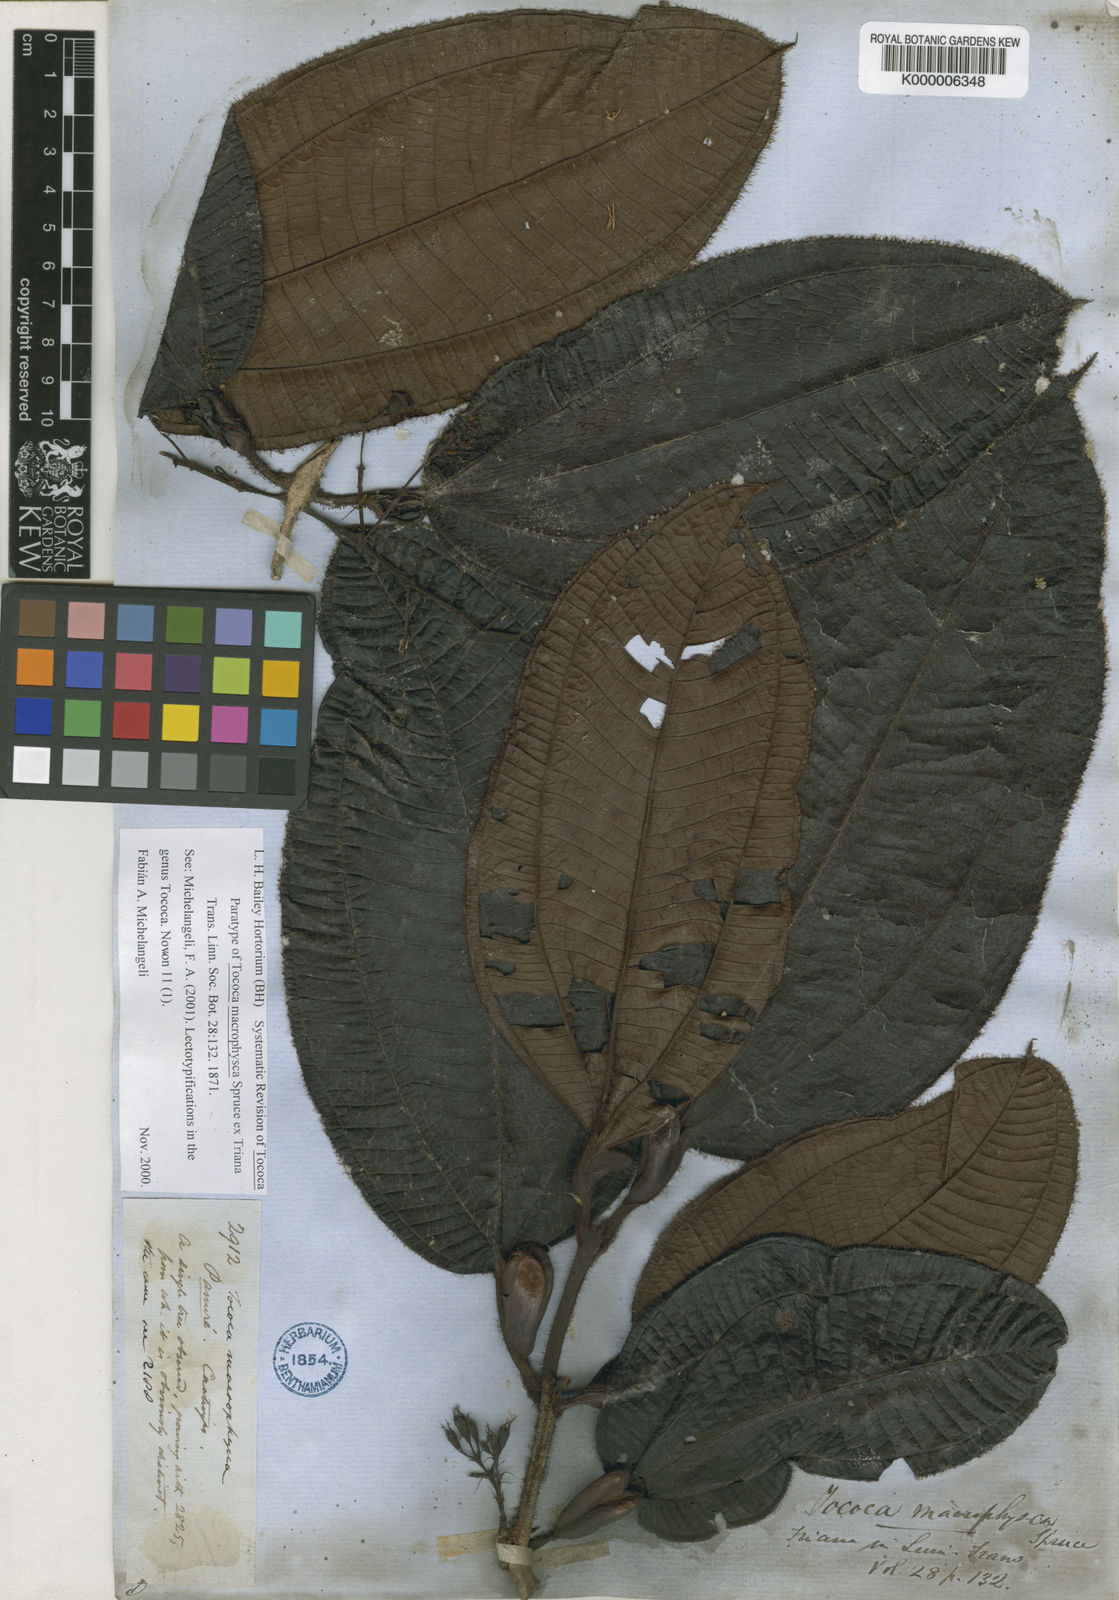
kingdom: Plantae
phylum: Tracheophyta
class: Magnoliopsida
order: Myrtales
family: Melastomataceae
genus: Miconia
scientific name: Miconia macrophysca
